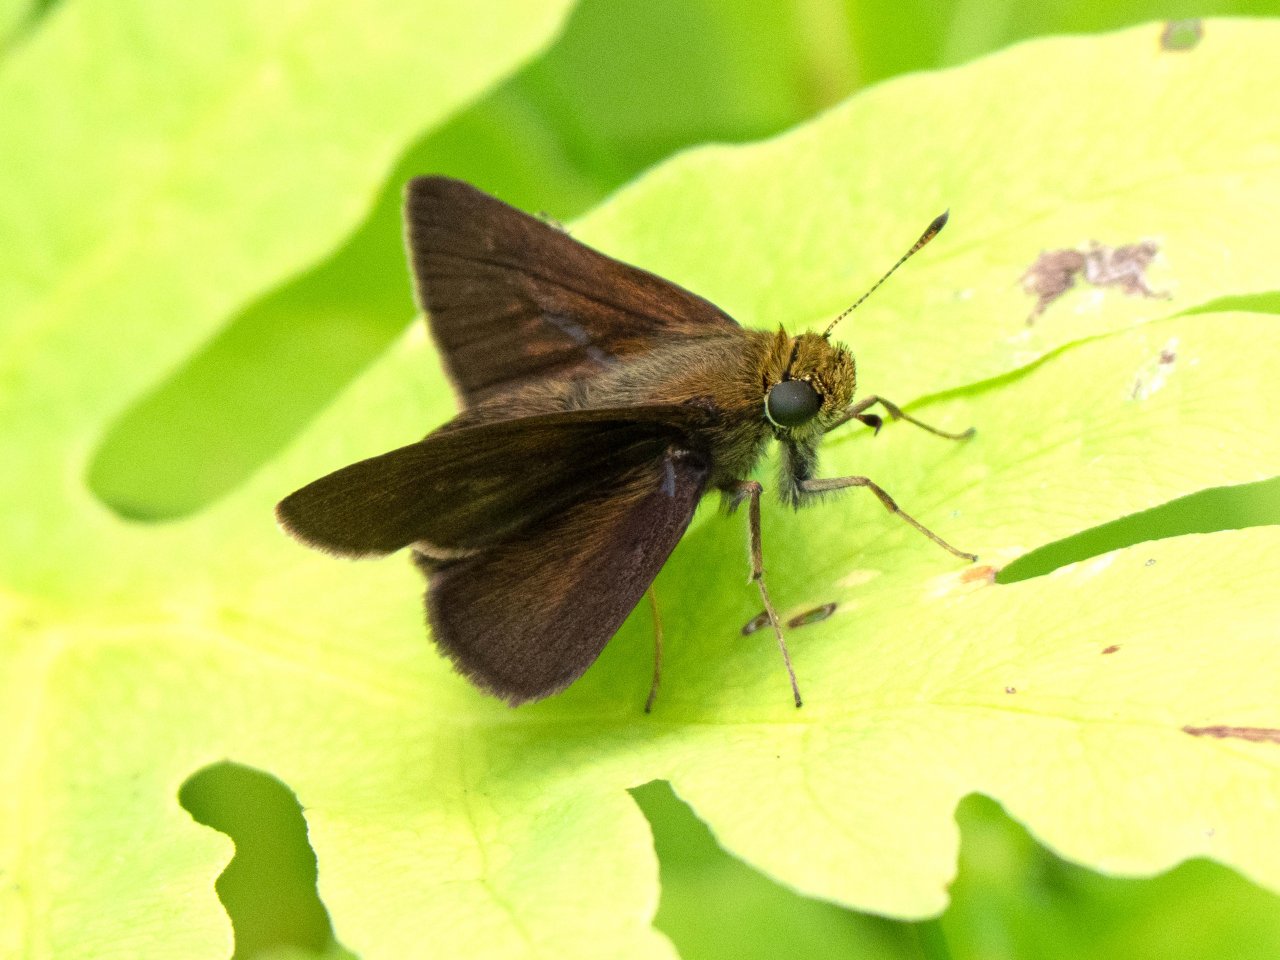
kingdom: Animalia
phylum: Arthropoda
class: Insecta
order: Lepidoptera
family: Hesperiidae
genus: Euphyes
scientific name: Euphyes vestris
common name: Dun Skipper
